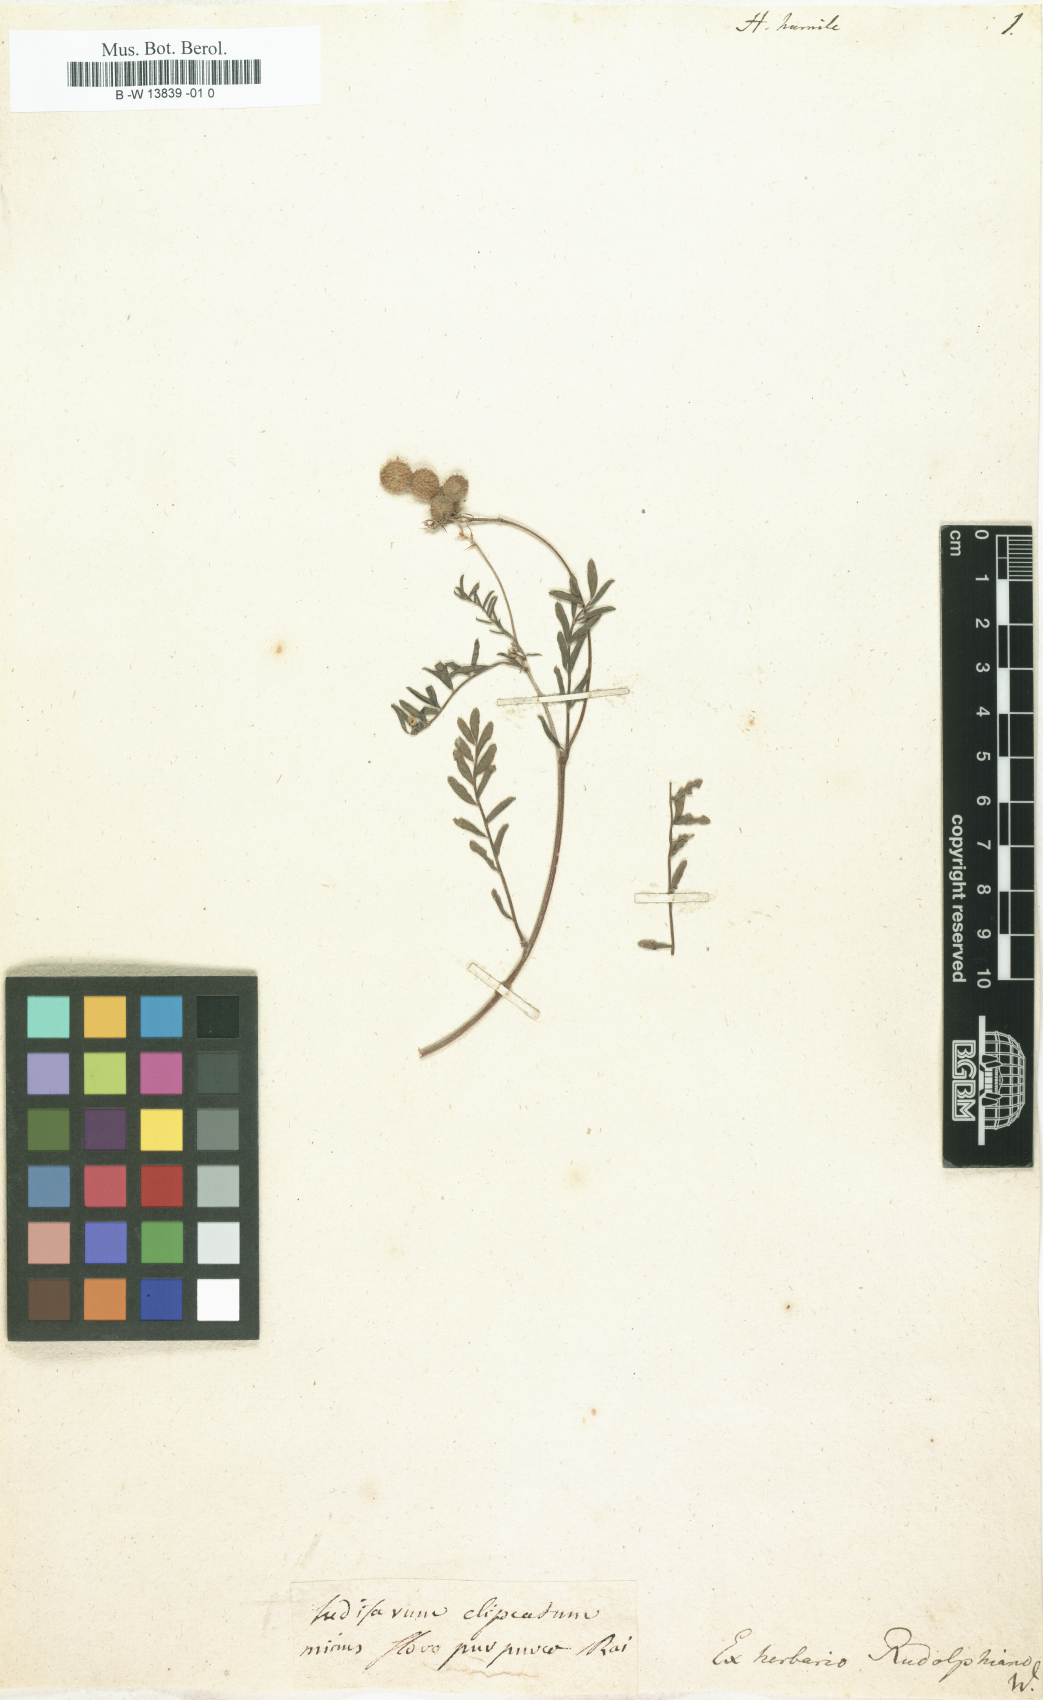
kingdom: Plantae
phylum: Tracheophyta
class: Magnoliopsida
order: Fabales
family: Fabaceae
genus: Onobrychis
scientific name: Onobrychis humilis
